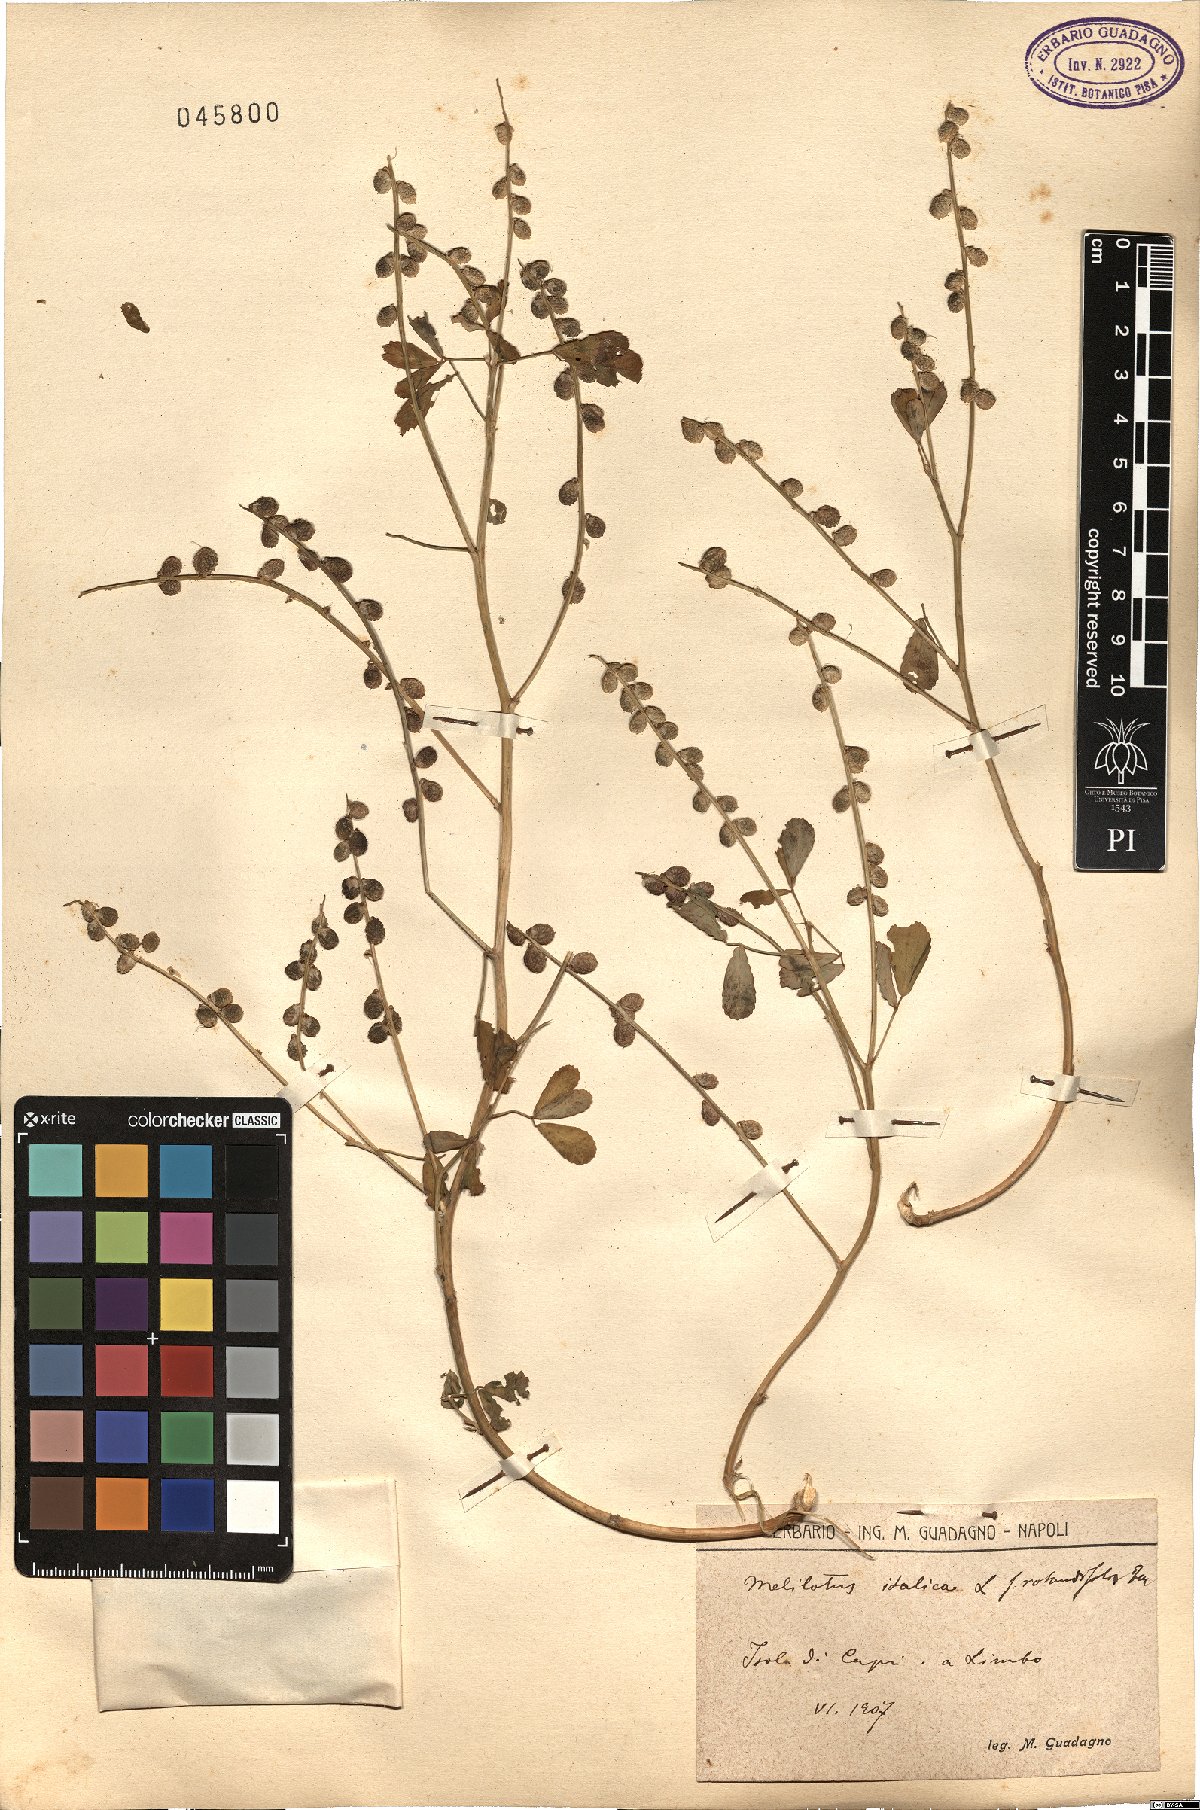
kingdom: Plantae
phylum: Tracheophyta
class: Magnoliopsida
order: Fabales
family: Fabaceae
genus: Melilotus
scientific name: Melilotus italicus
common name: Italian melilot
